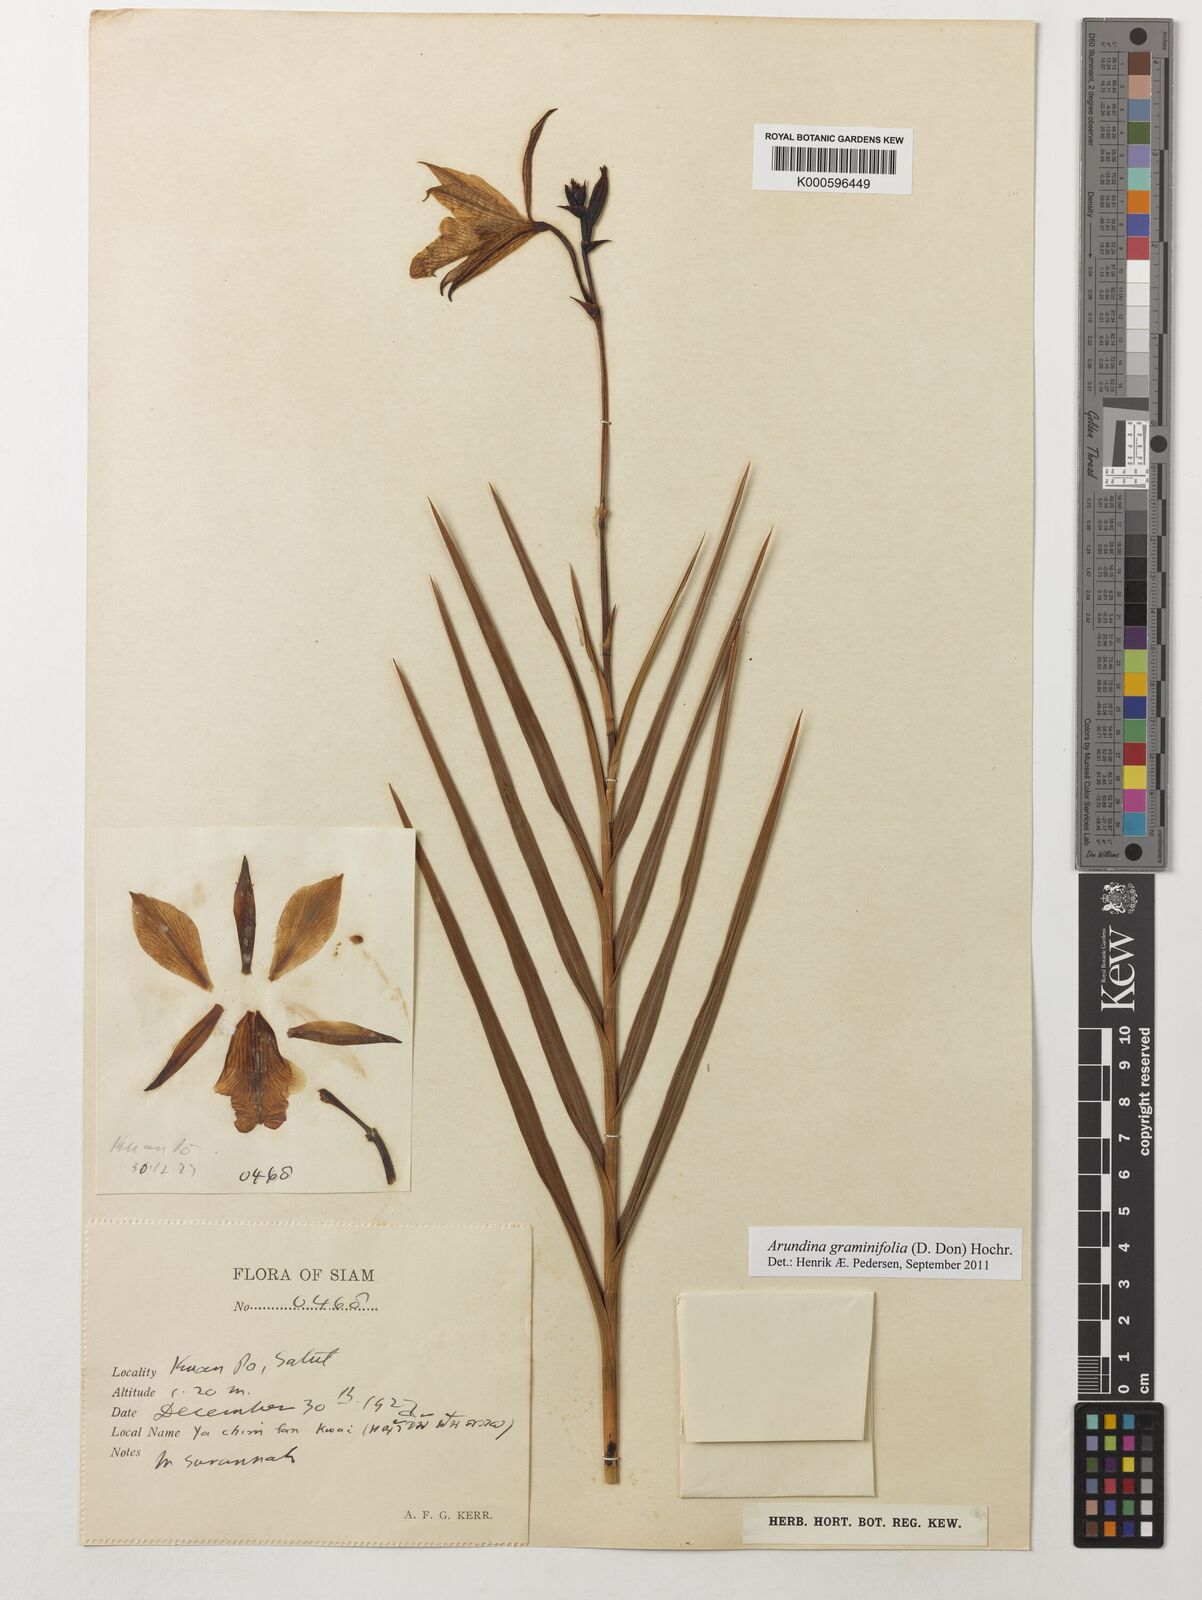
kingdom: Plantae
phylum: Tracheophyta
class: Liliopsida
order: Asparagales
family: Orchidaceae
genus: Arundina
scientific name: Arundina graminifolia
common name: Bamboo orchid
